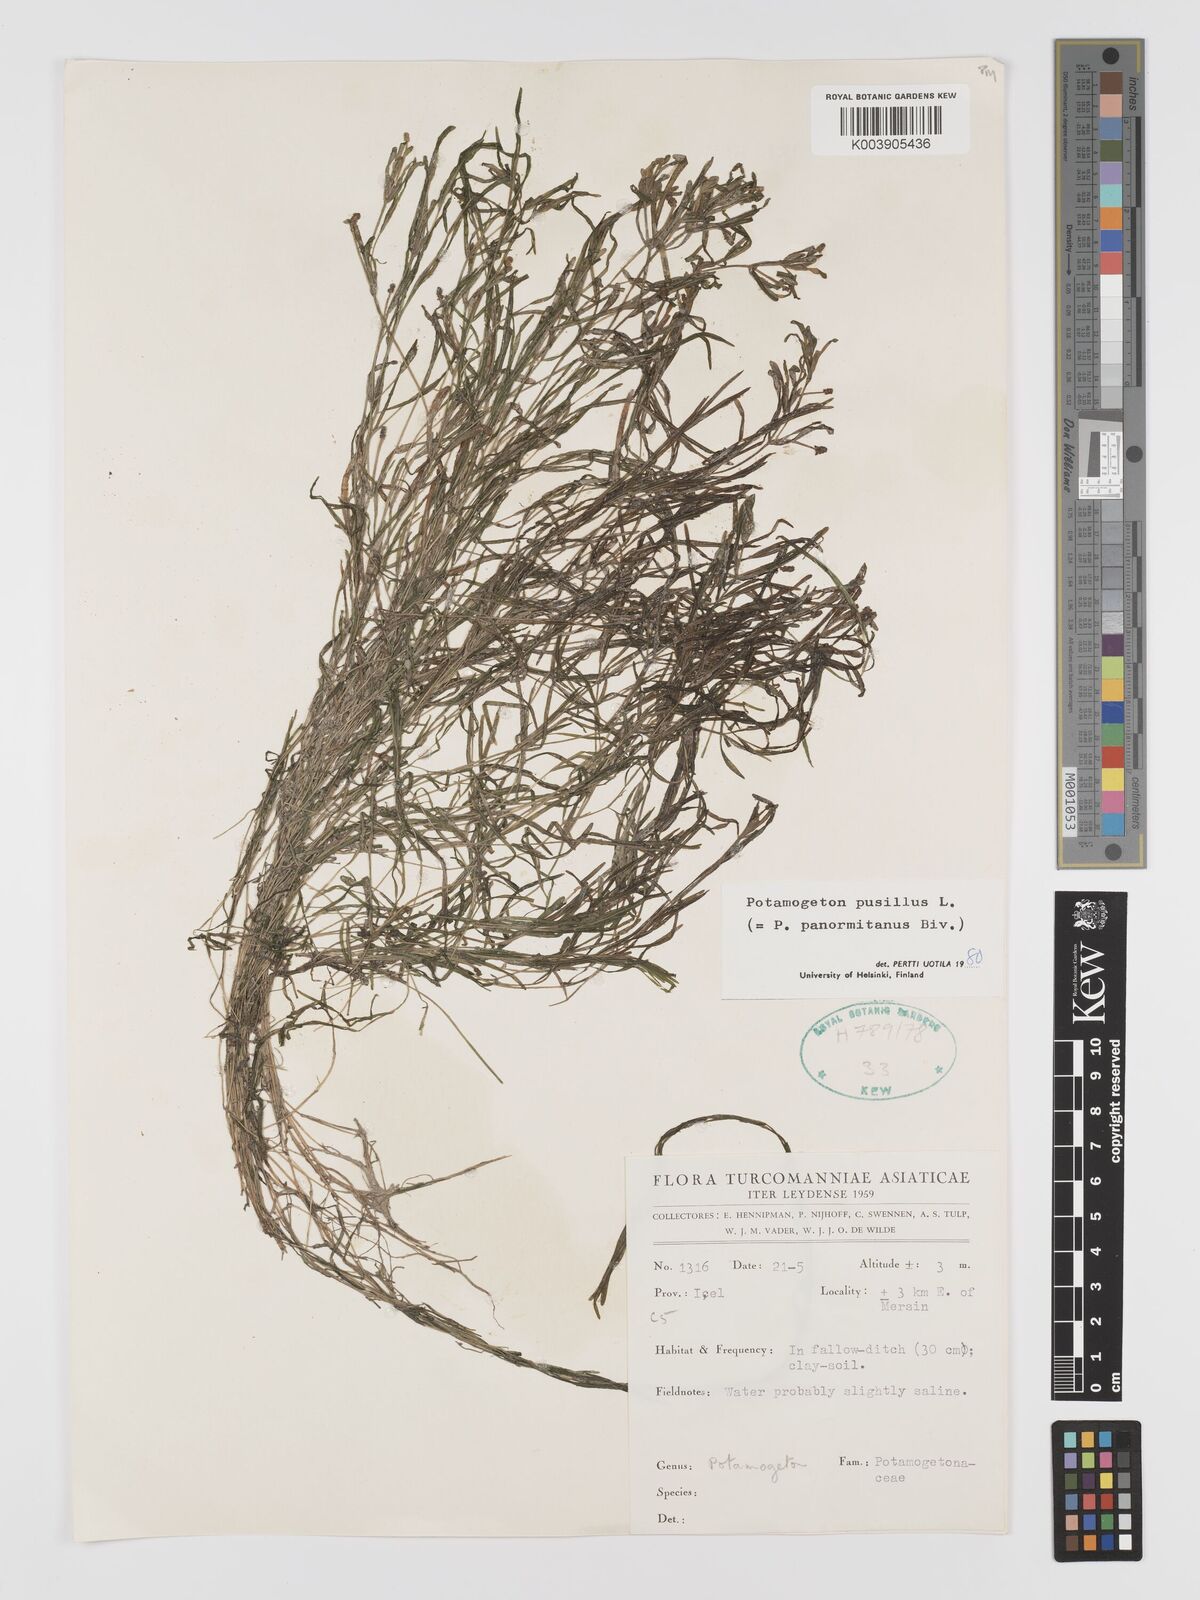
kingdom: Plantae
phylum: Tracheophyta
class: Liliopsida
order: Alismatales
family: Potamogetonaceae
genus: Potamogeton
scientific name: Potamogeton pusillus
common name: Lesser pondweed
